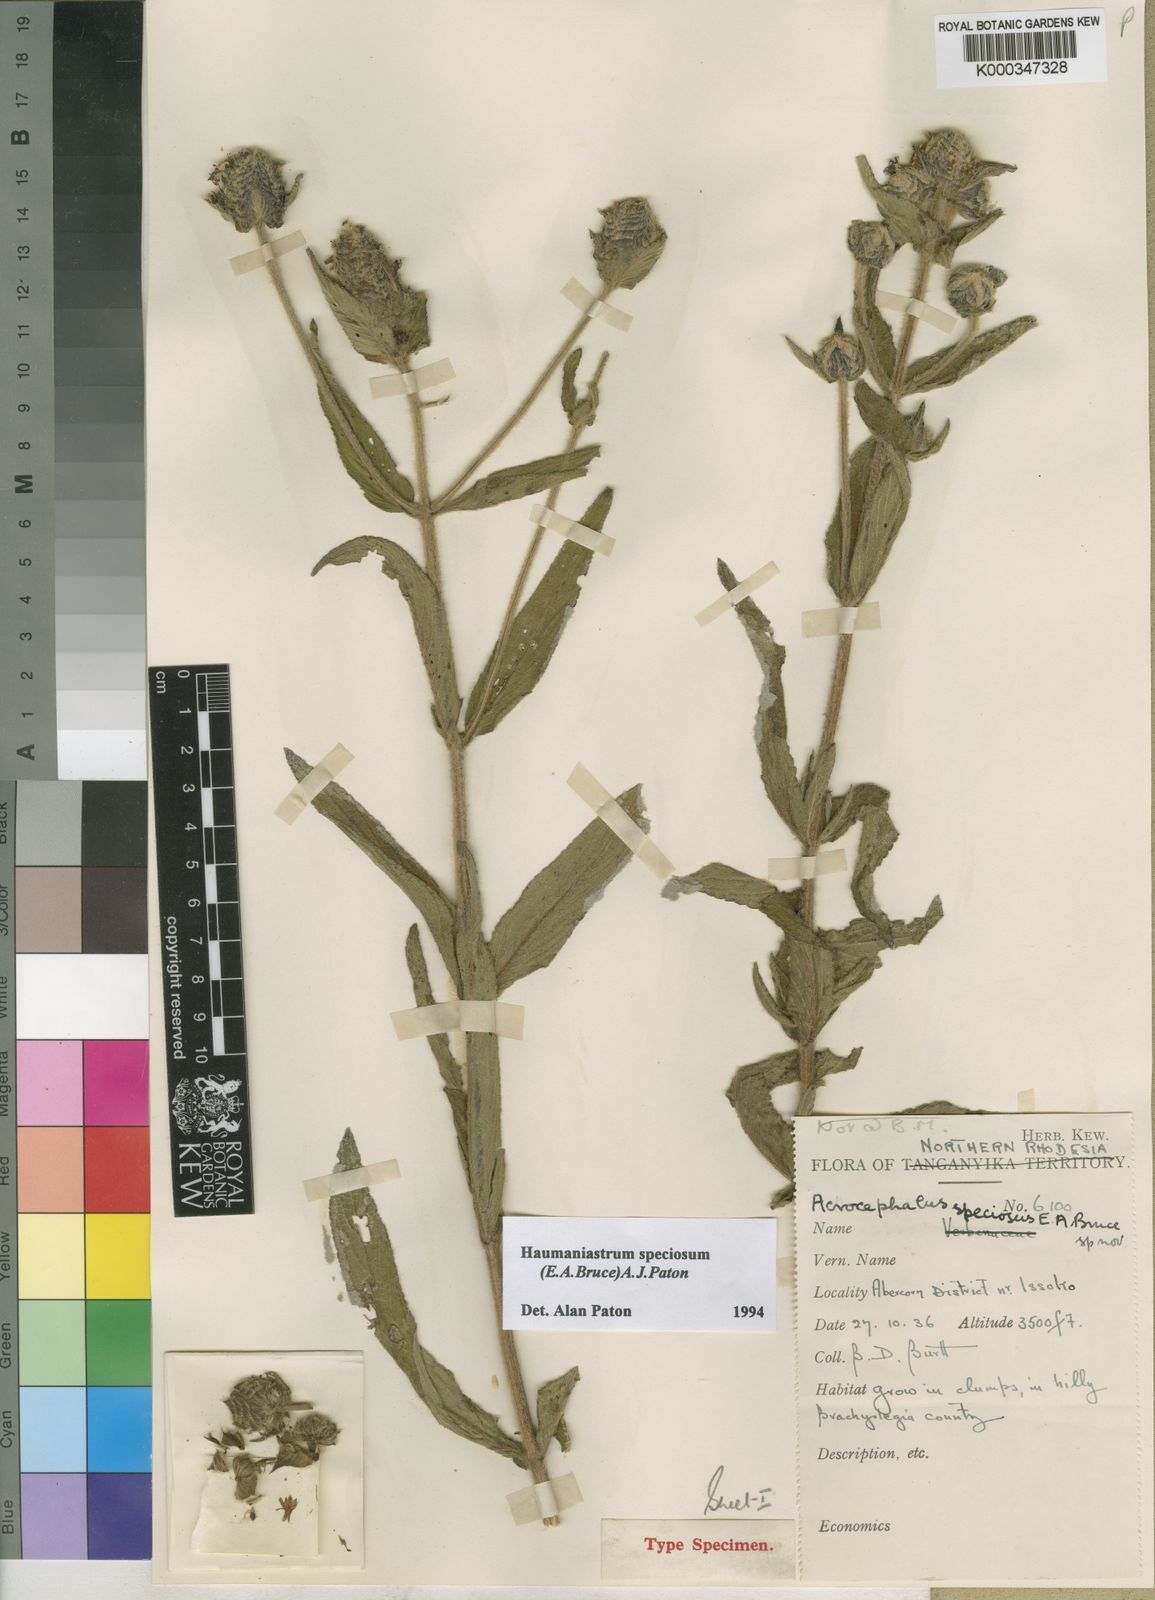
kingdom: Plantae
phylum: Tracheophyta
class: Magnoliopsida
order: Lamiales
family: Lamiaceae
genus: Haumaniastrum
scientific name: Haumaniastrum speciosum
